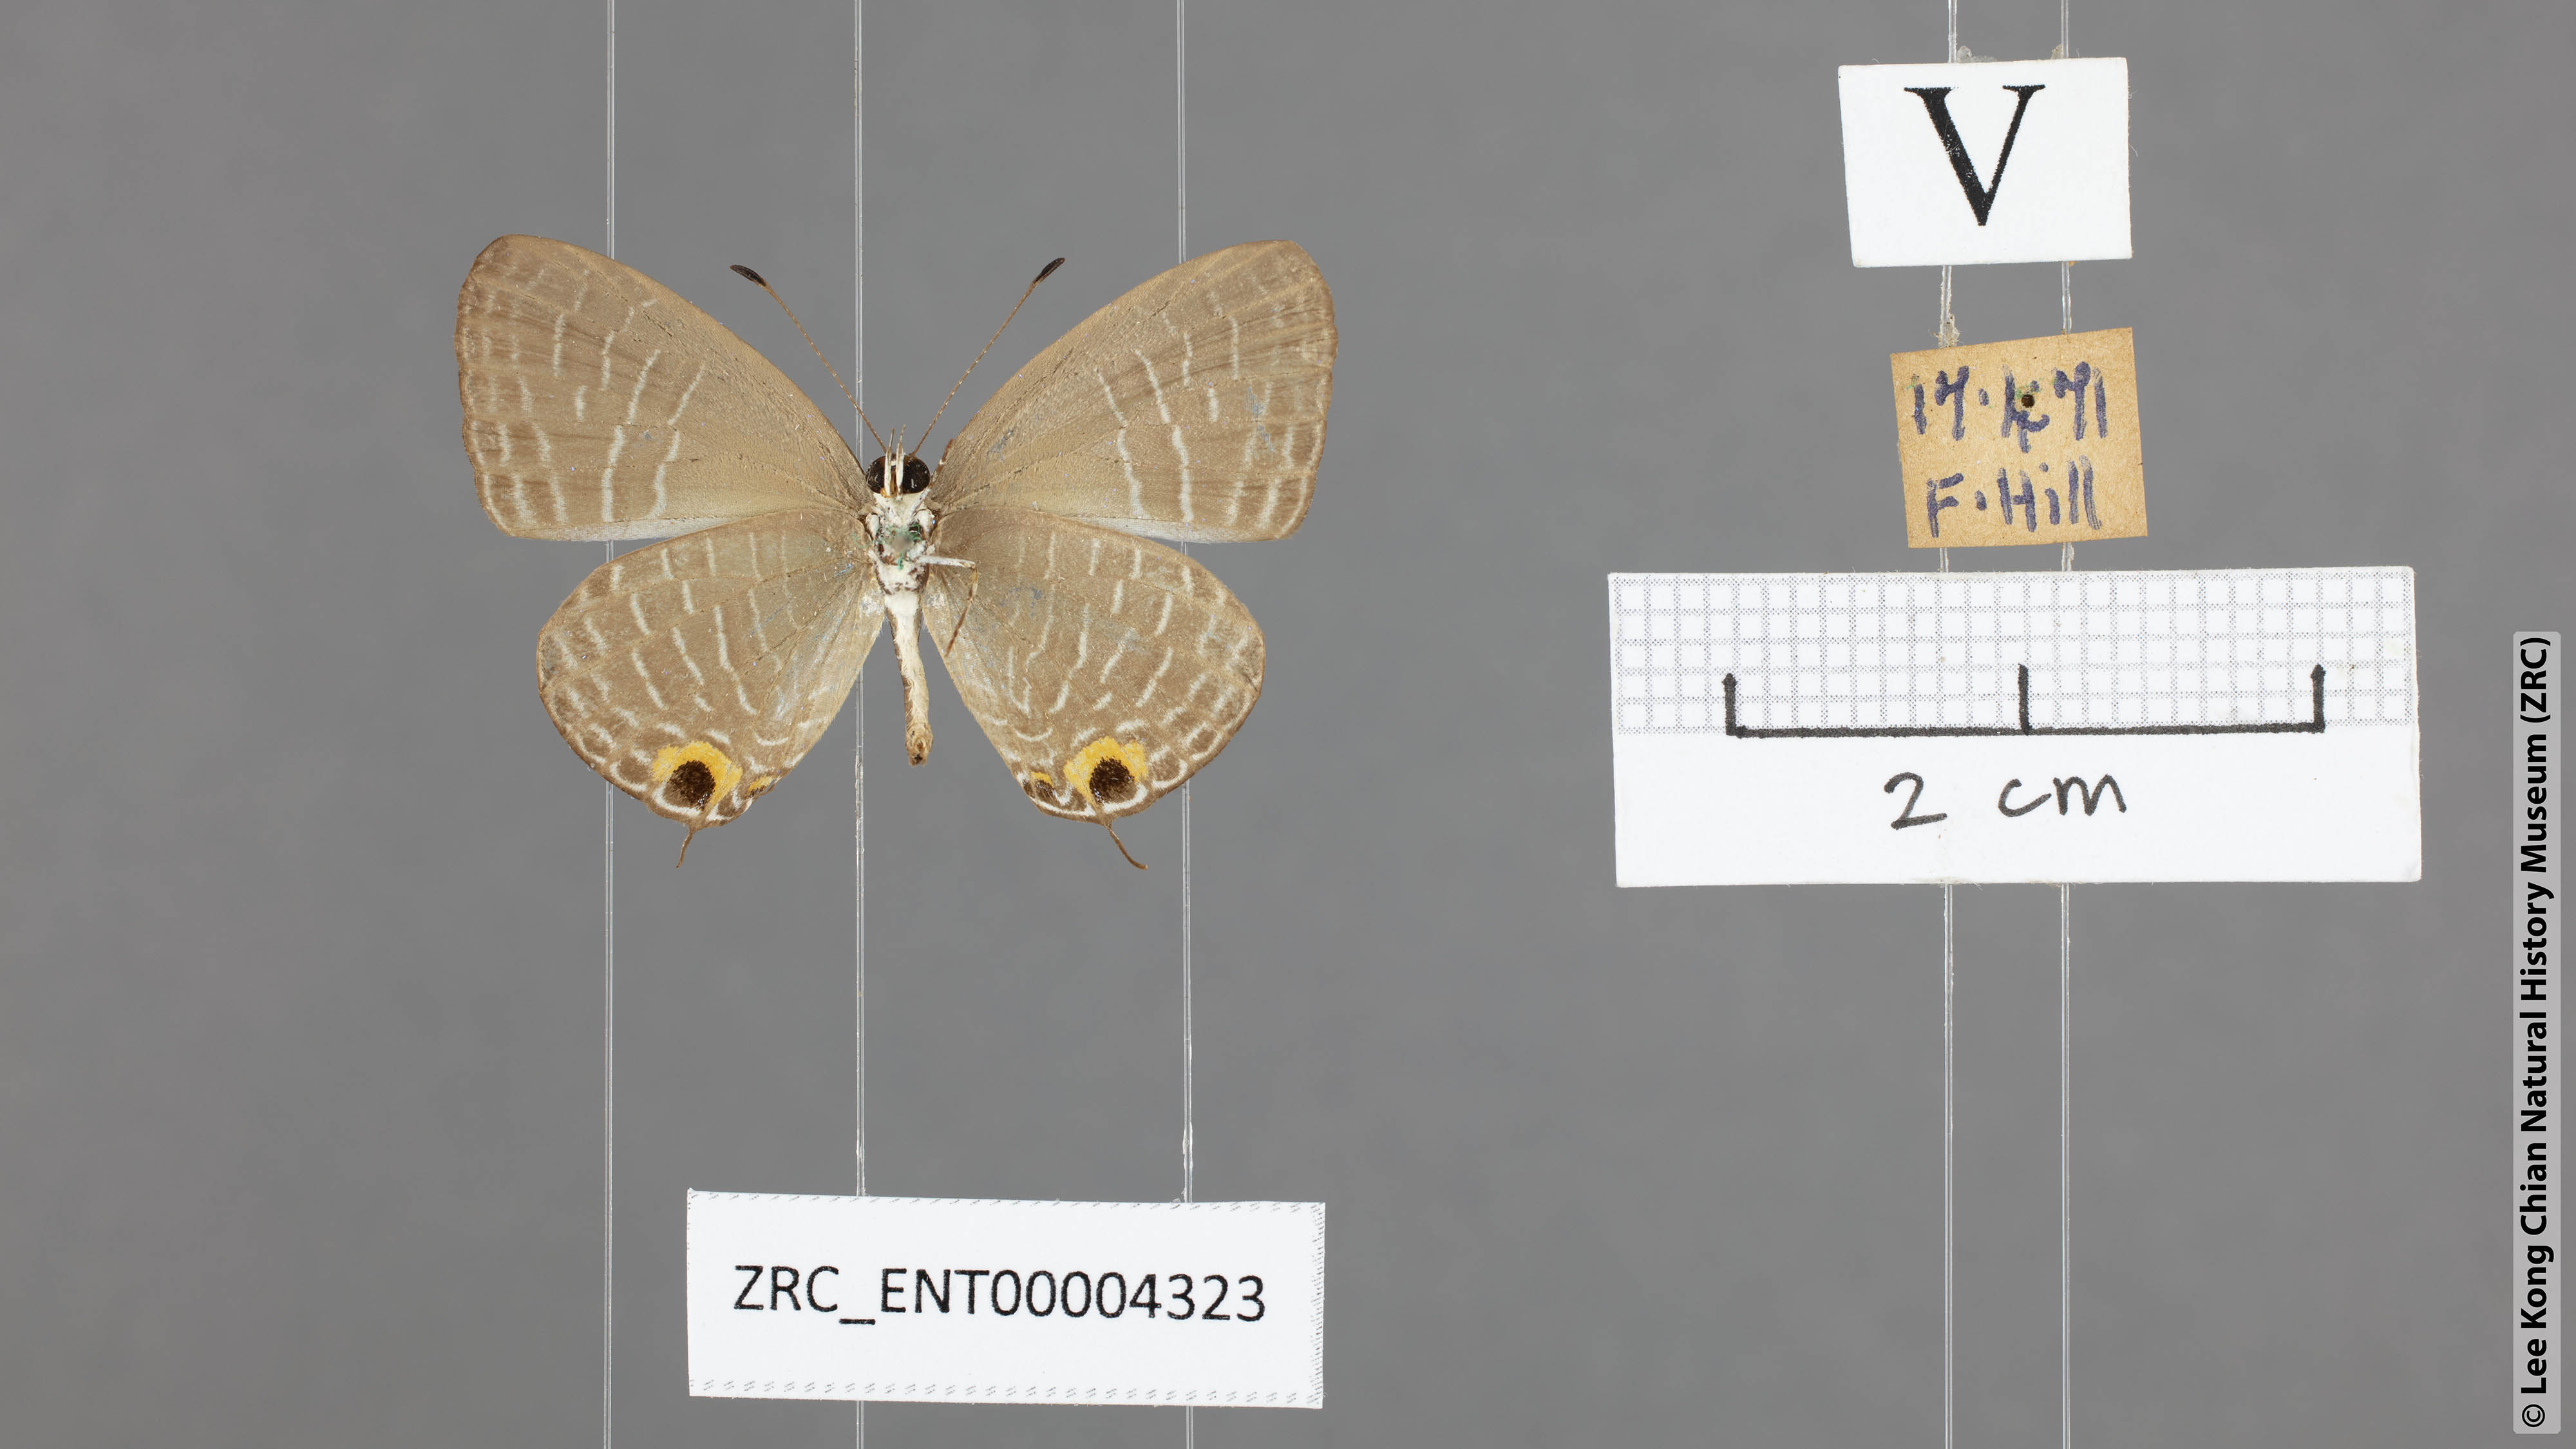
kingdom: Animalia
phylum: Arthropoda
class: Insecta
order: Lepidoptera
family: Lycaenidae
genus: Jamides
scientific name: Jamides caerulea
